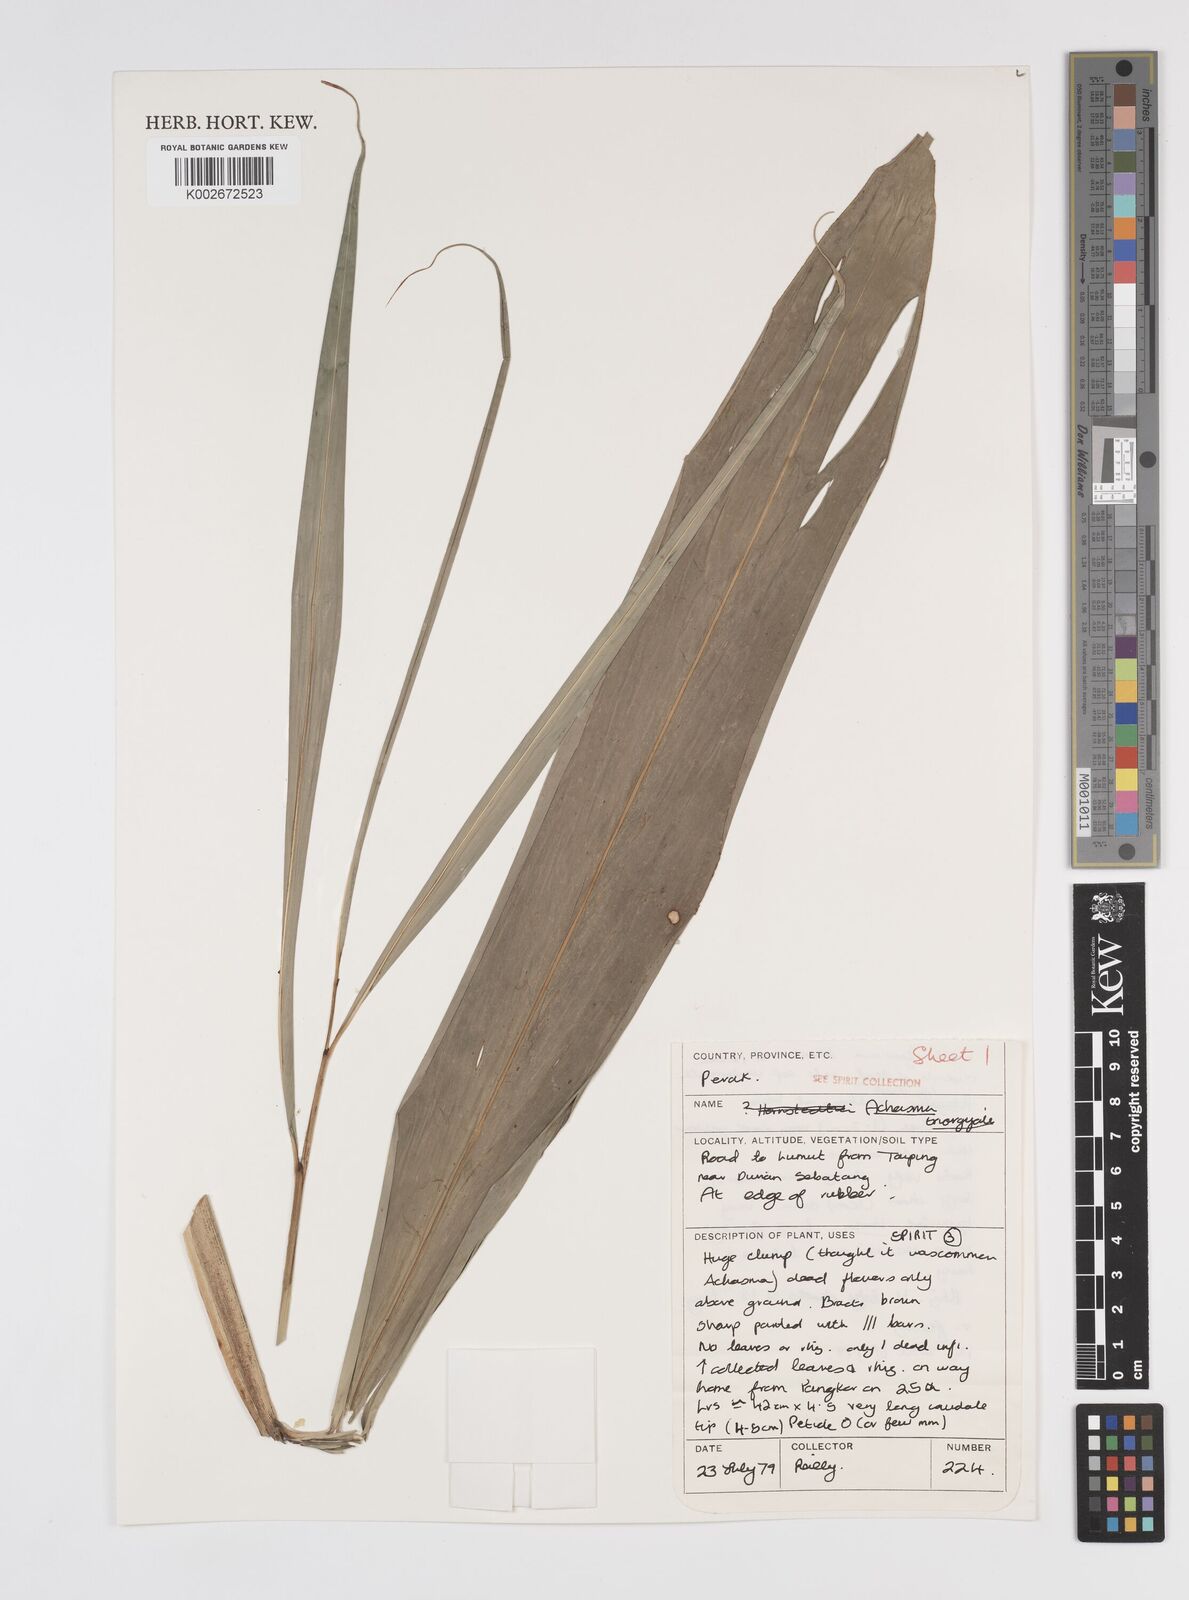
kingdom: Plantae
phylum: Tracheophyta
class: Liliopsida
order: Zingiberales
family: Zingiberaceae
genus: Etlingera
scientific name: Etlingera triorgyalis
